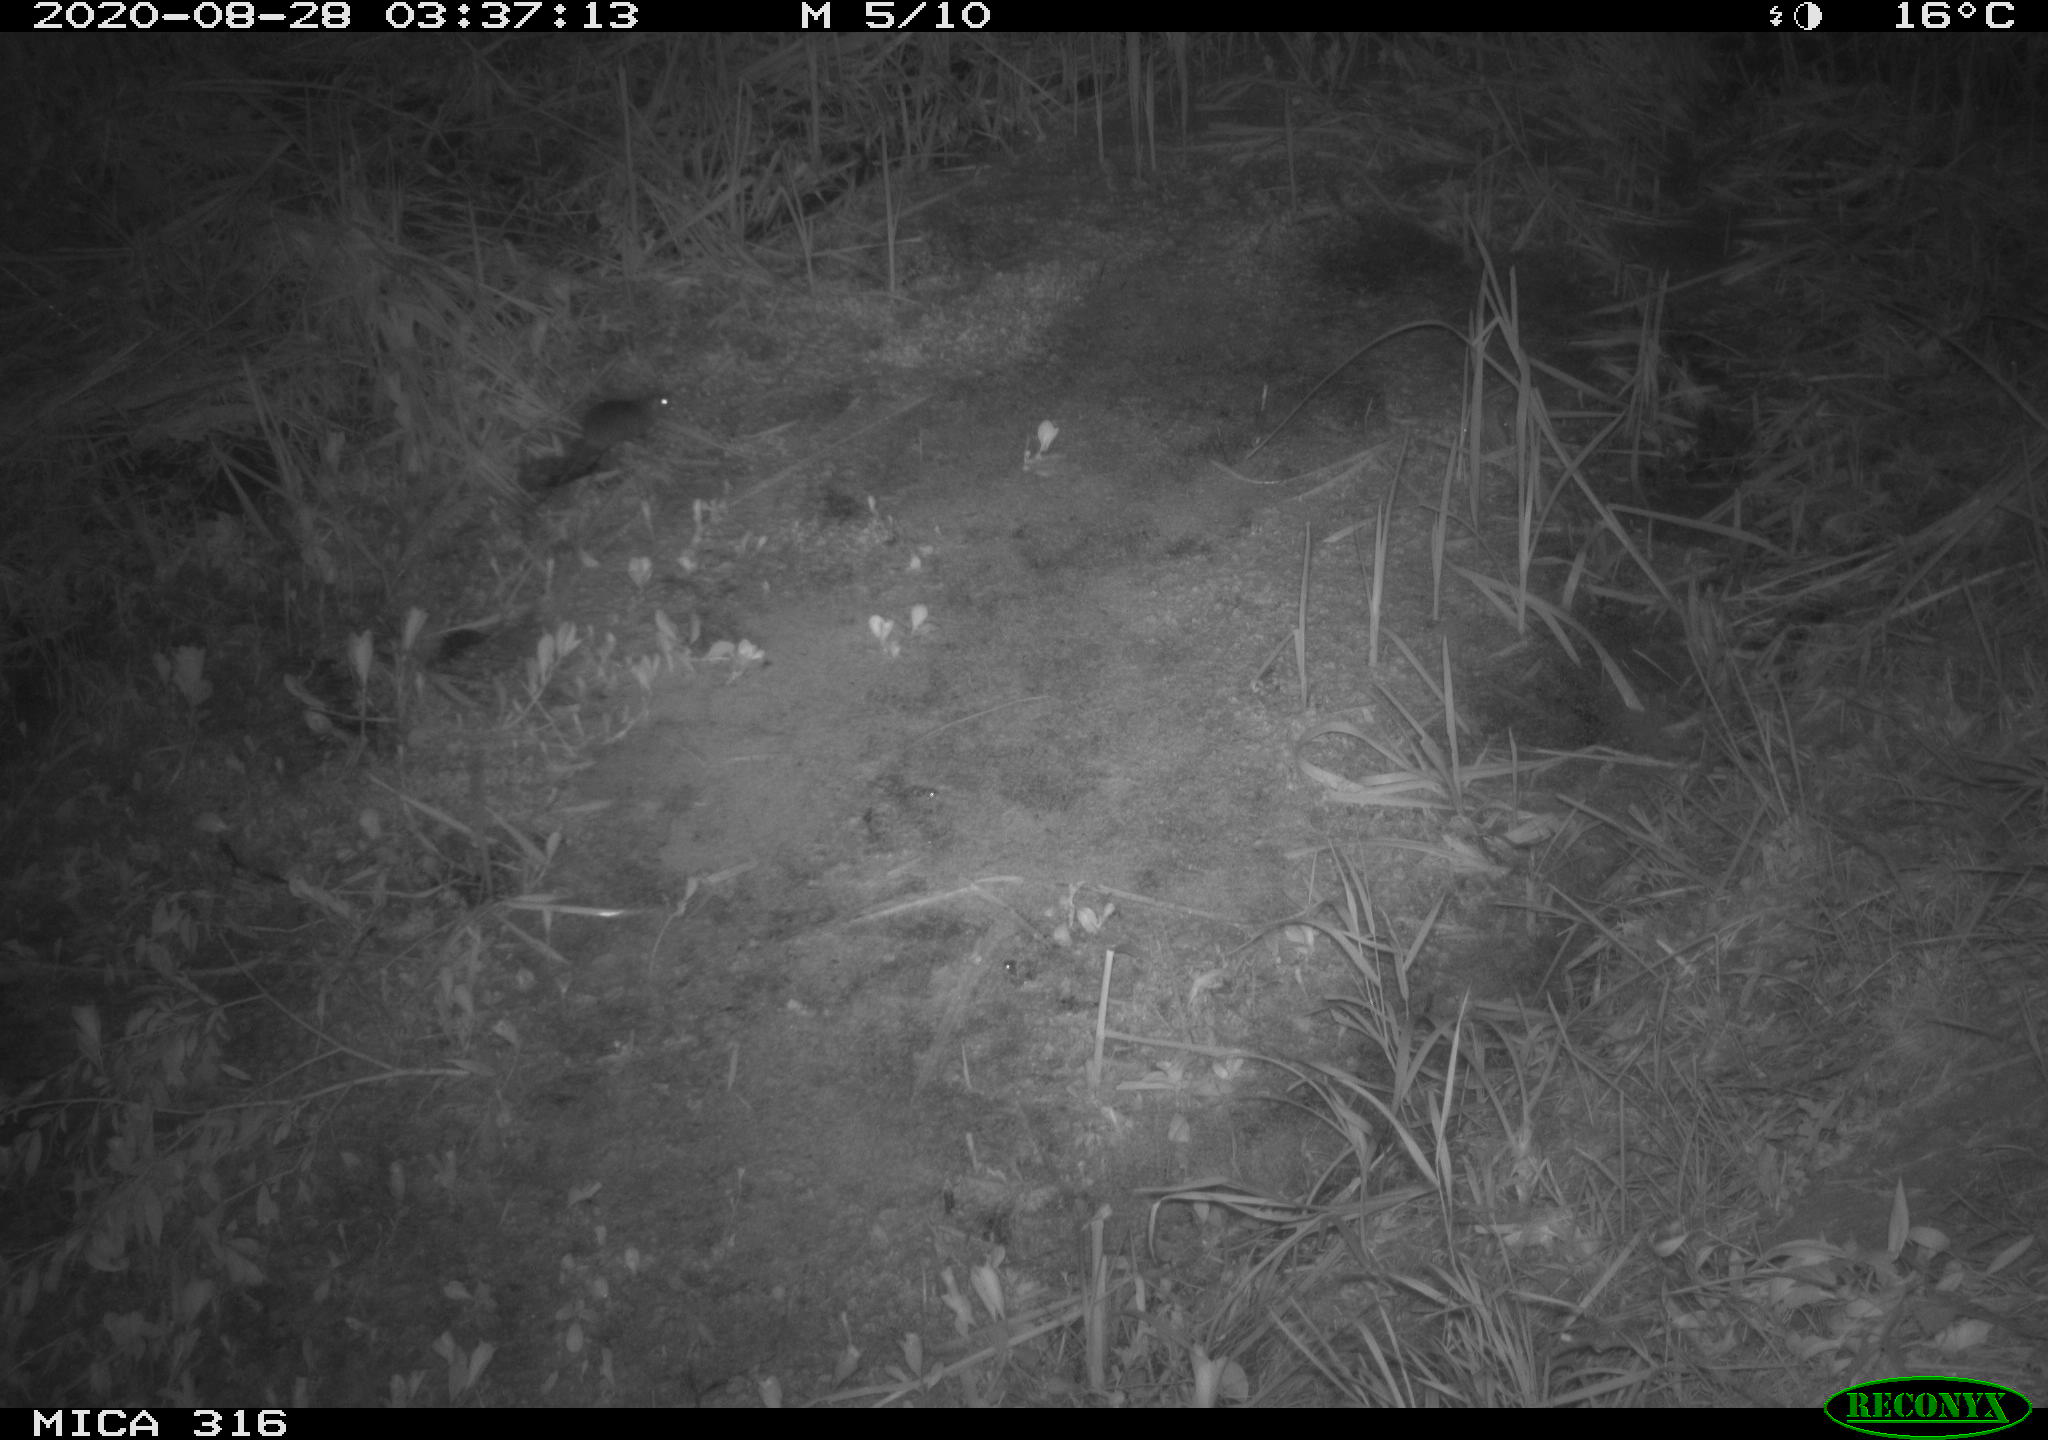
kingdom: Animalia
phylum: Chordata
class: Mammalia
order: Rodentia
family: Muridae
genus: Rattus
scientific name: Rattus norvegicus
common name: Brown rat
